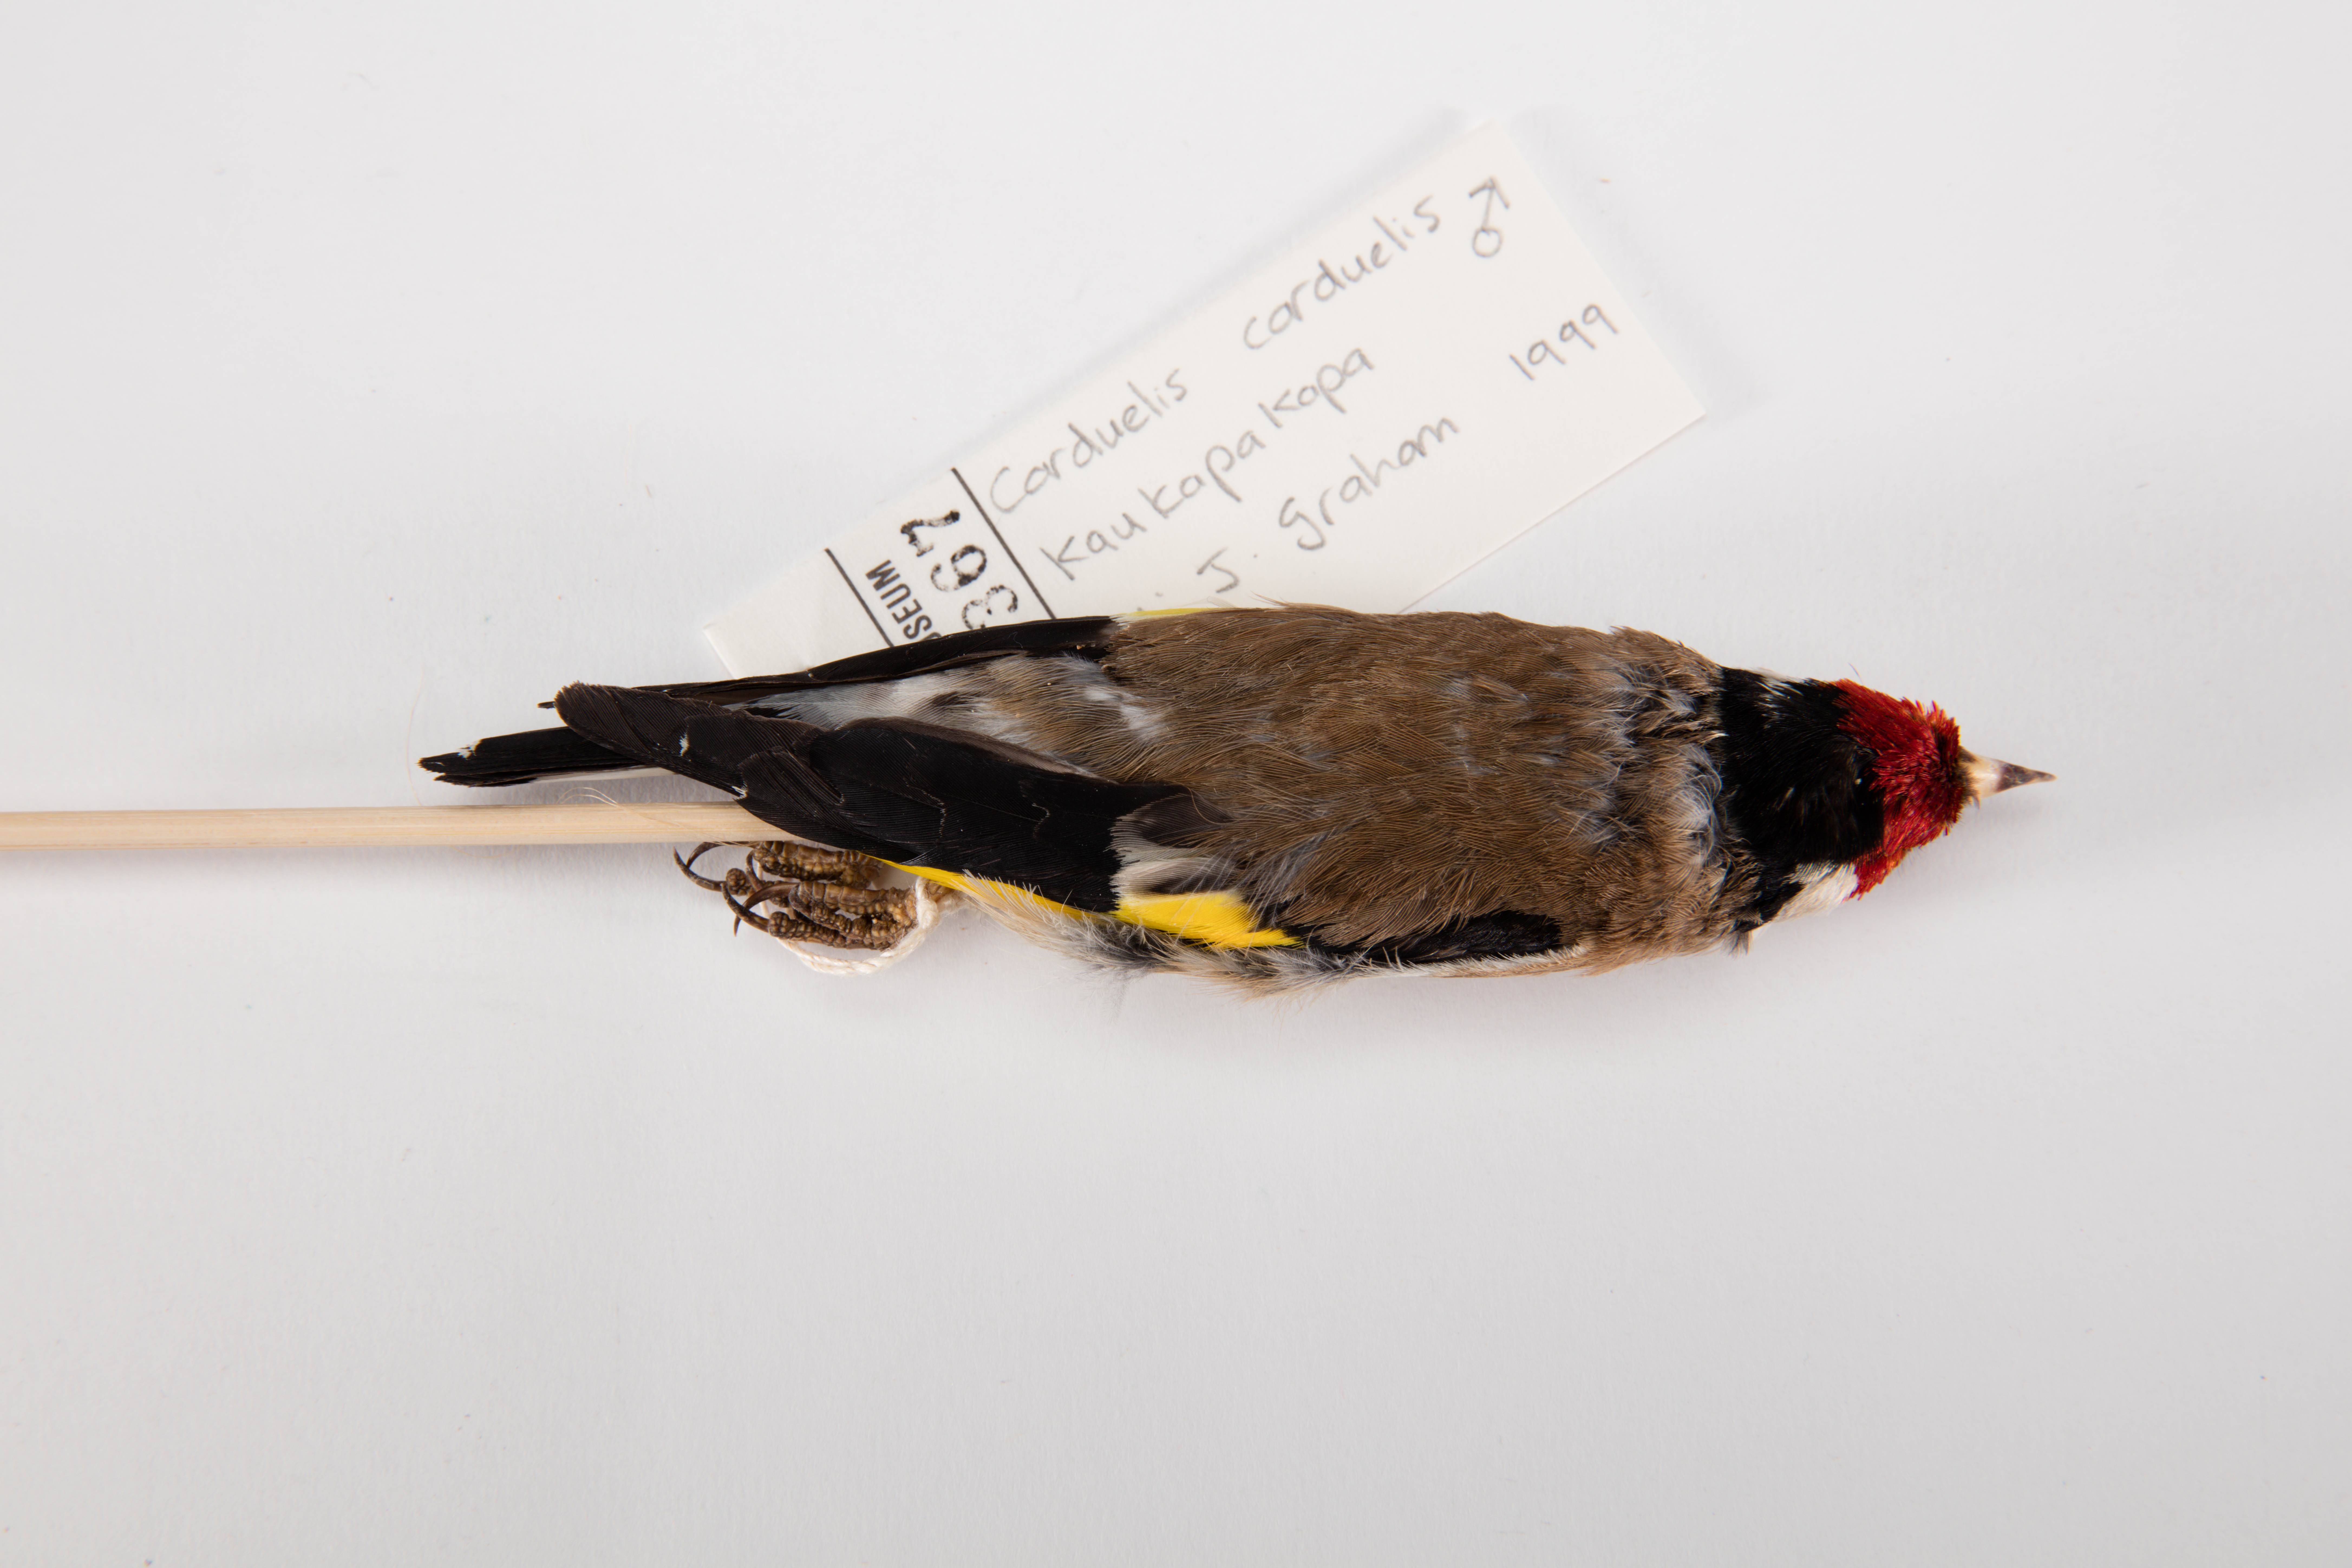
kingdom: Animalia
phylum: Chordata
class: Aves
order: Passeriformes
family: Fringillidae
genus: Carduelis
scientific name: Carduelis carduelis
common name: European goldfinch
